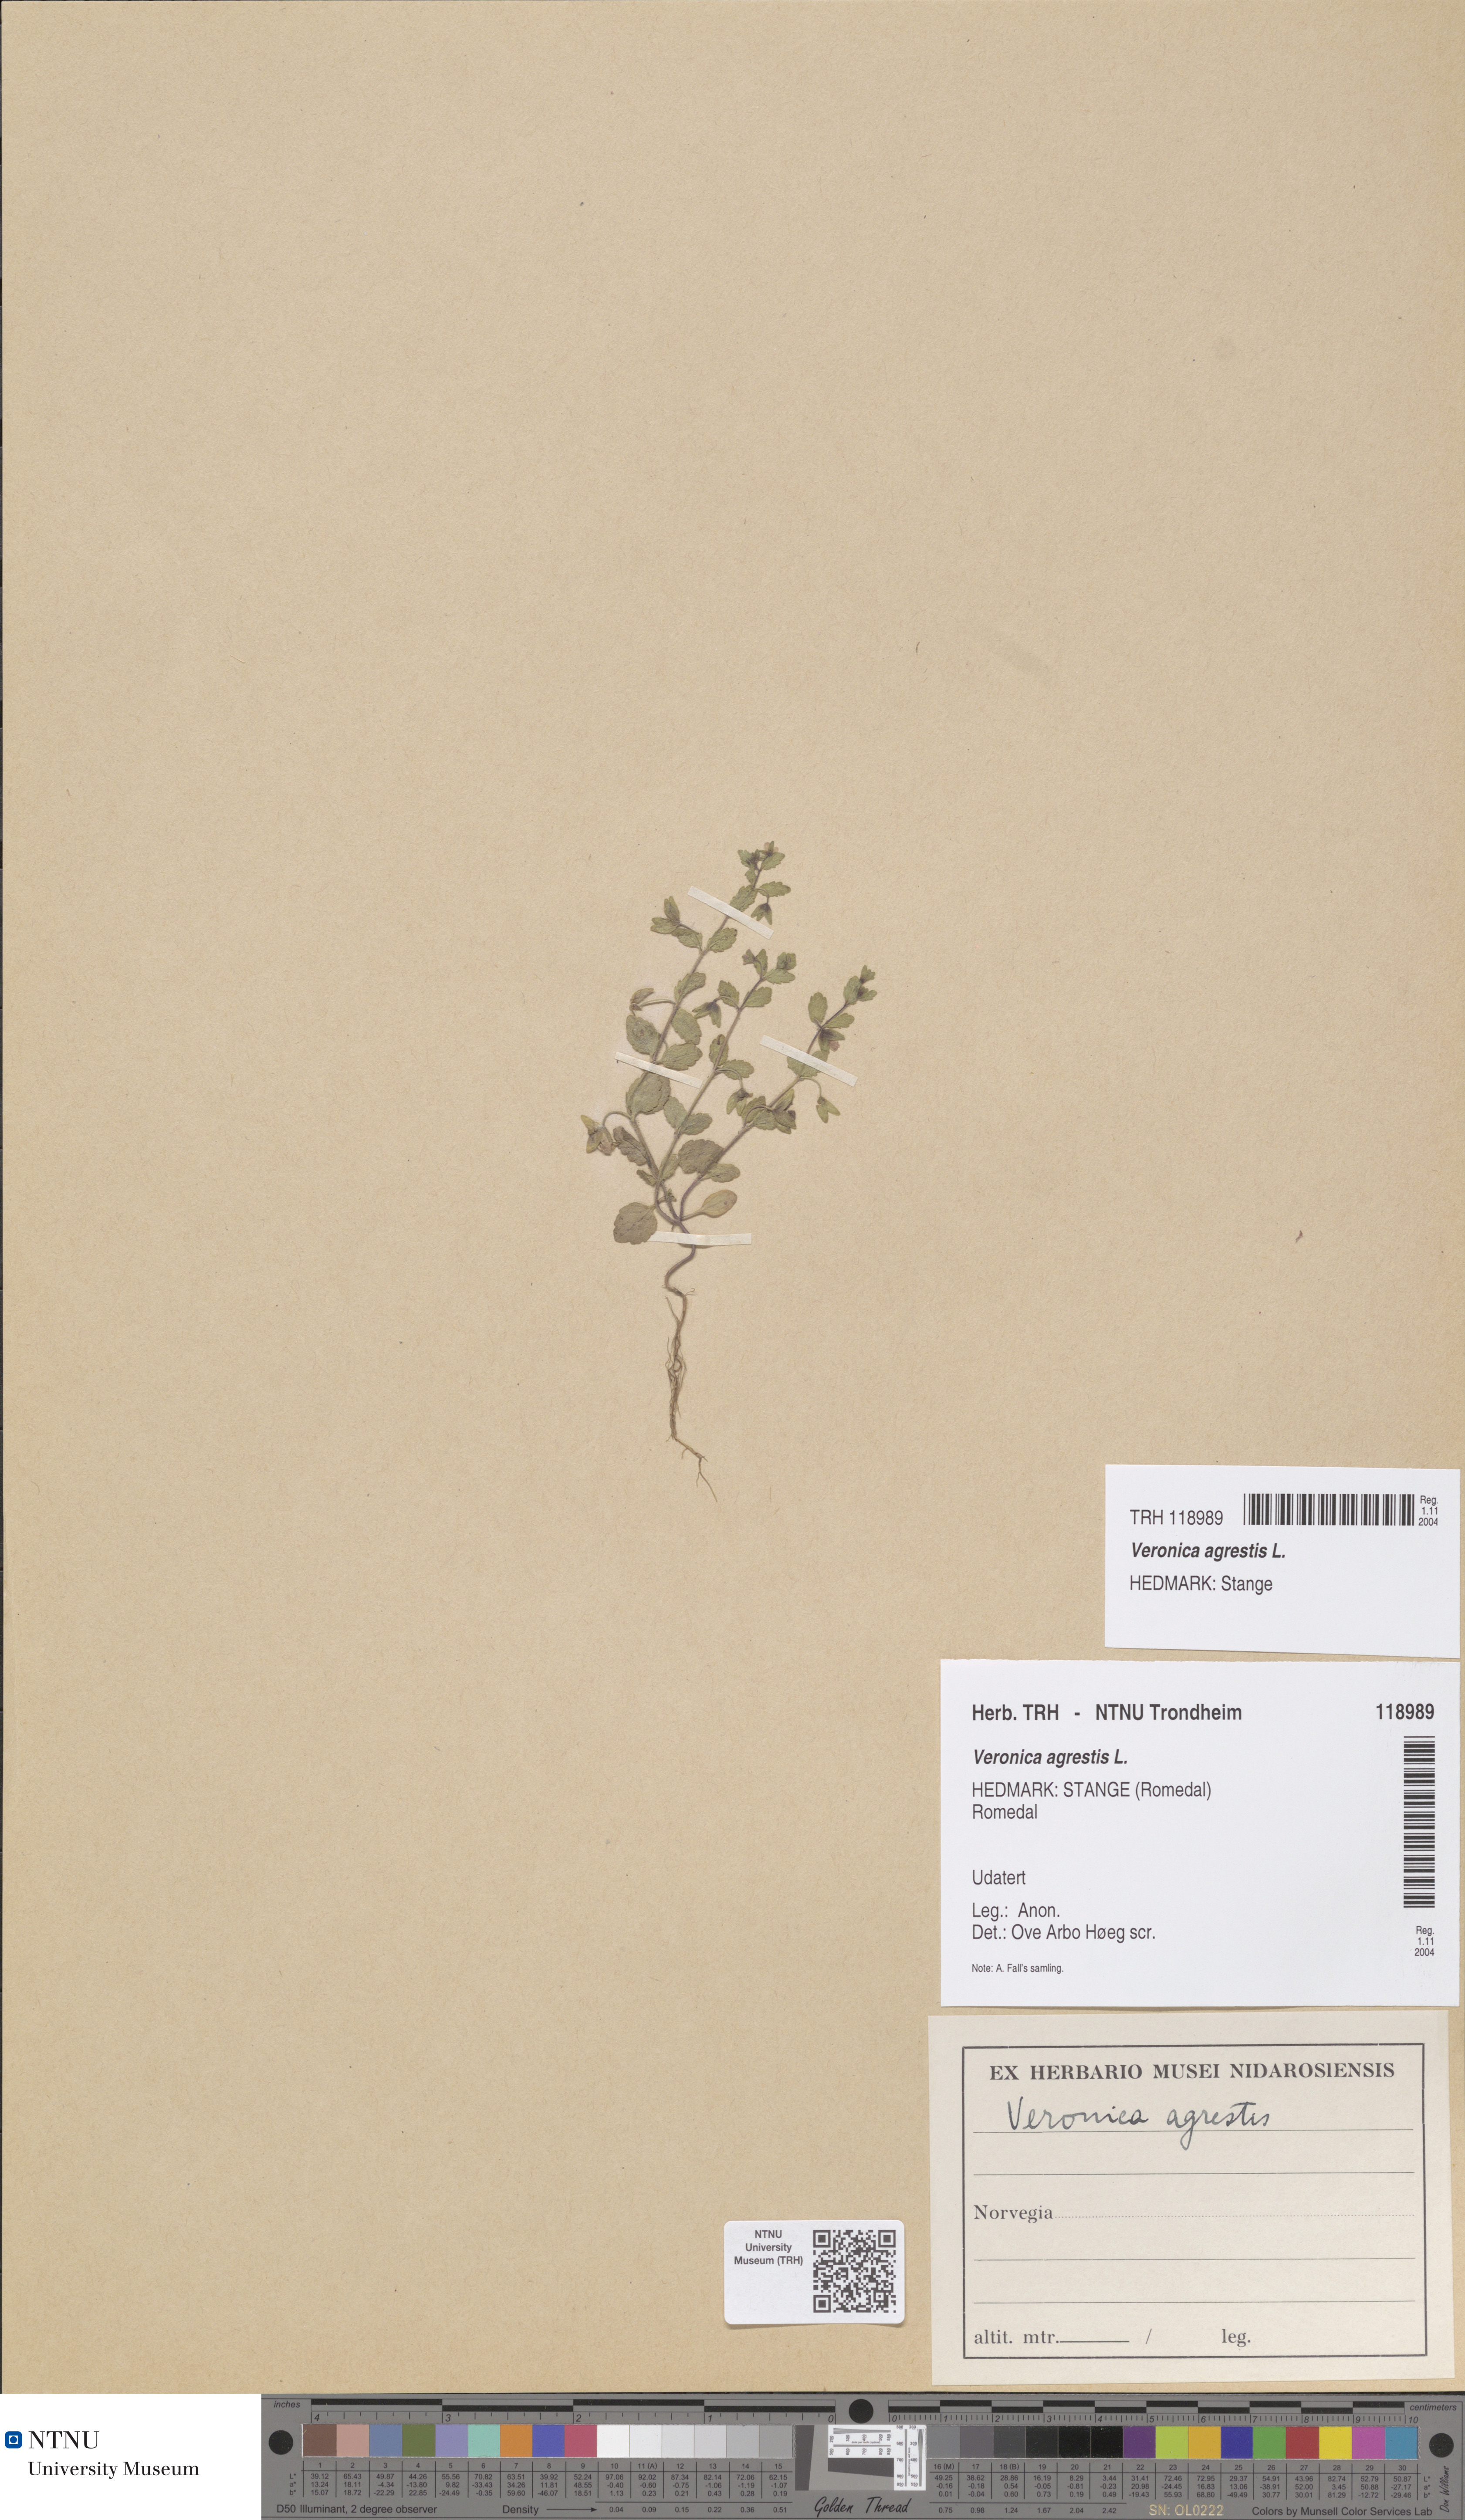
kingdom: Plantae
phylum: Tracheophyta
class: Magnoliopsida
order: Lamiales
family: Plantaginaceae
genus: Veronica
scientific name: Veronica agrestis
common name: Green field-speedwell
